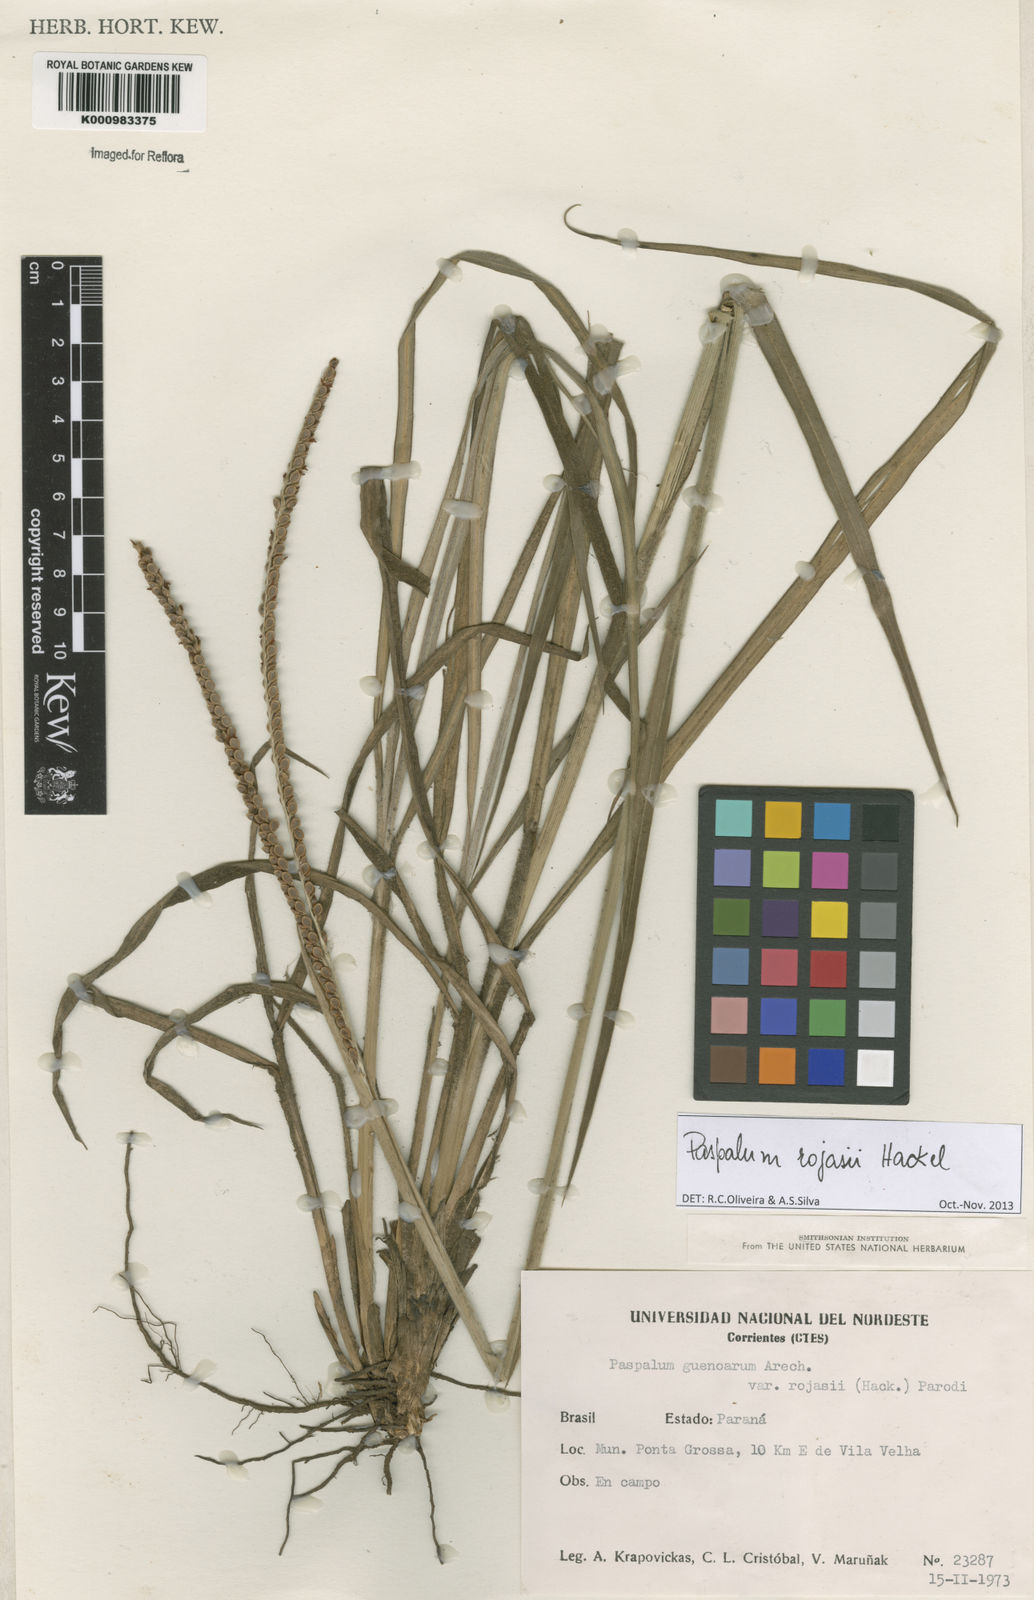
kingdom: Plantae
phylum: Tracheophyta
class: Liliopsida
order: Poales
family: Poaceae
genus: Paspalum
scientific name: Paspalum guenoarum
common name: Wintergreen paspalum
